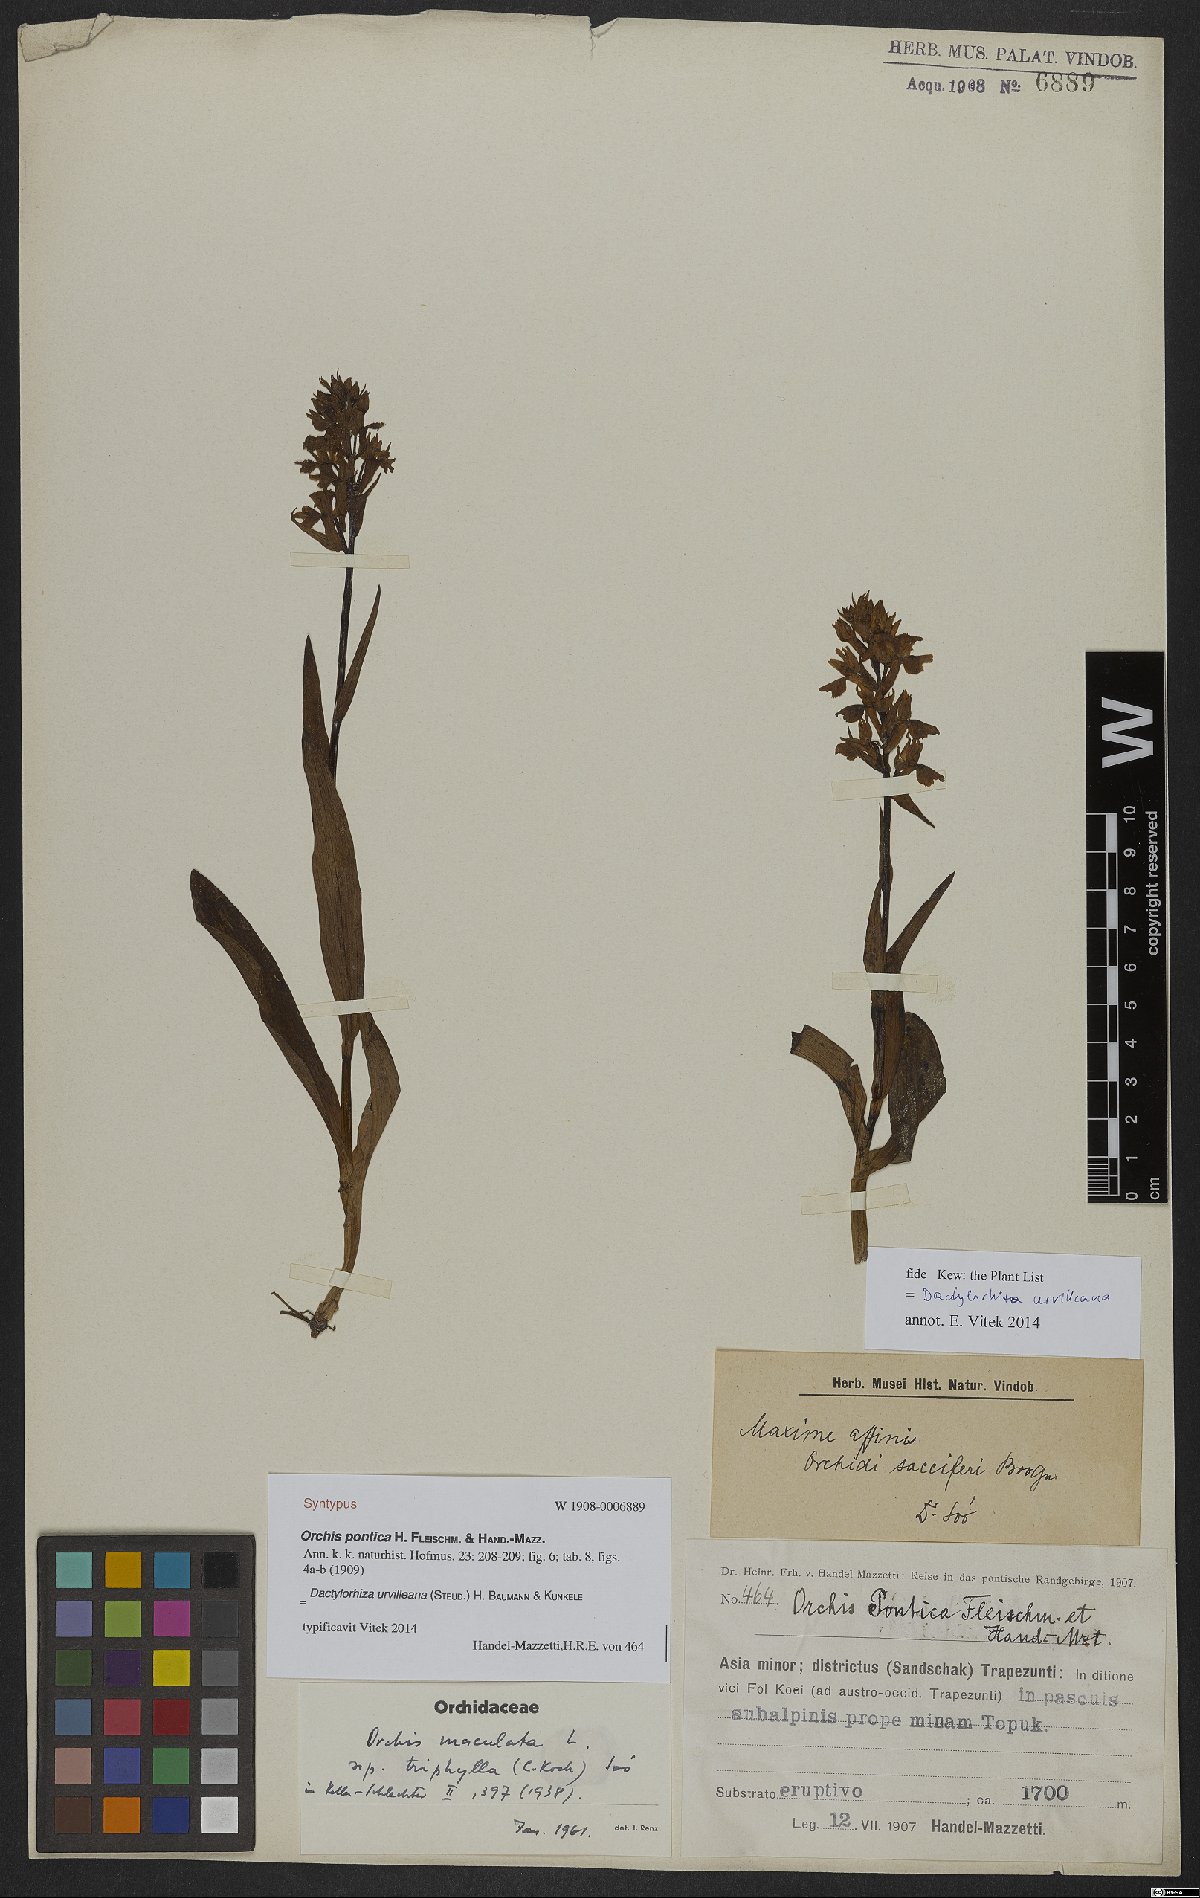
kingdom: Plantae
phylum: Tracheophyta
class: Liliopsida
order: Asparagales
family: Orchidaceae
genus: Dactylorhiza
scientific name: Dactylorhiza urvilleana
